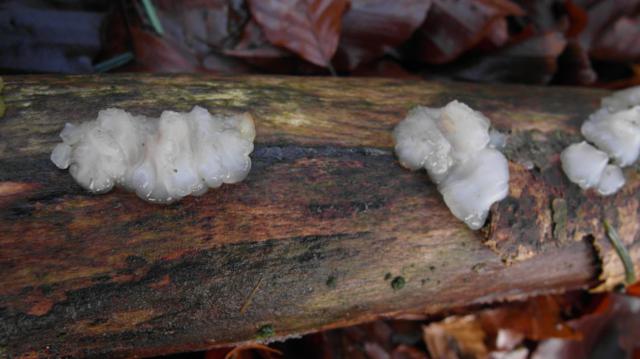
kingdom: Fungi
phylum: Basidiomycota
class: Agaricomycetes
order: Auriculariales
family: Auriculariaceae
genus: Exidia
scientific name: Exidia thuretiana
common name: hvidlig bævretop
